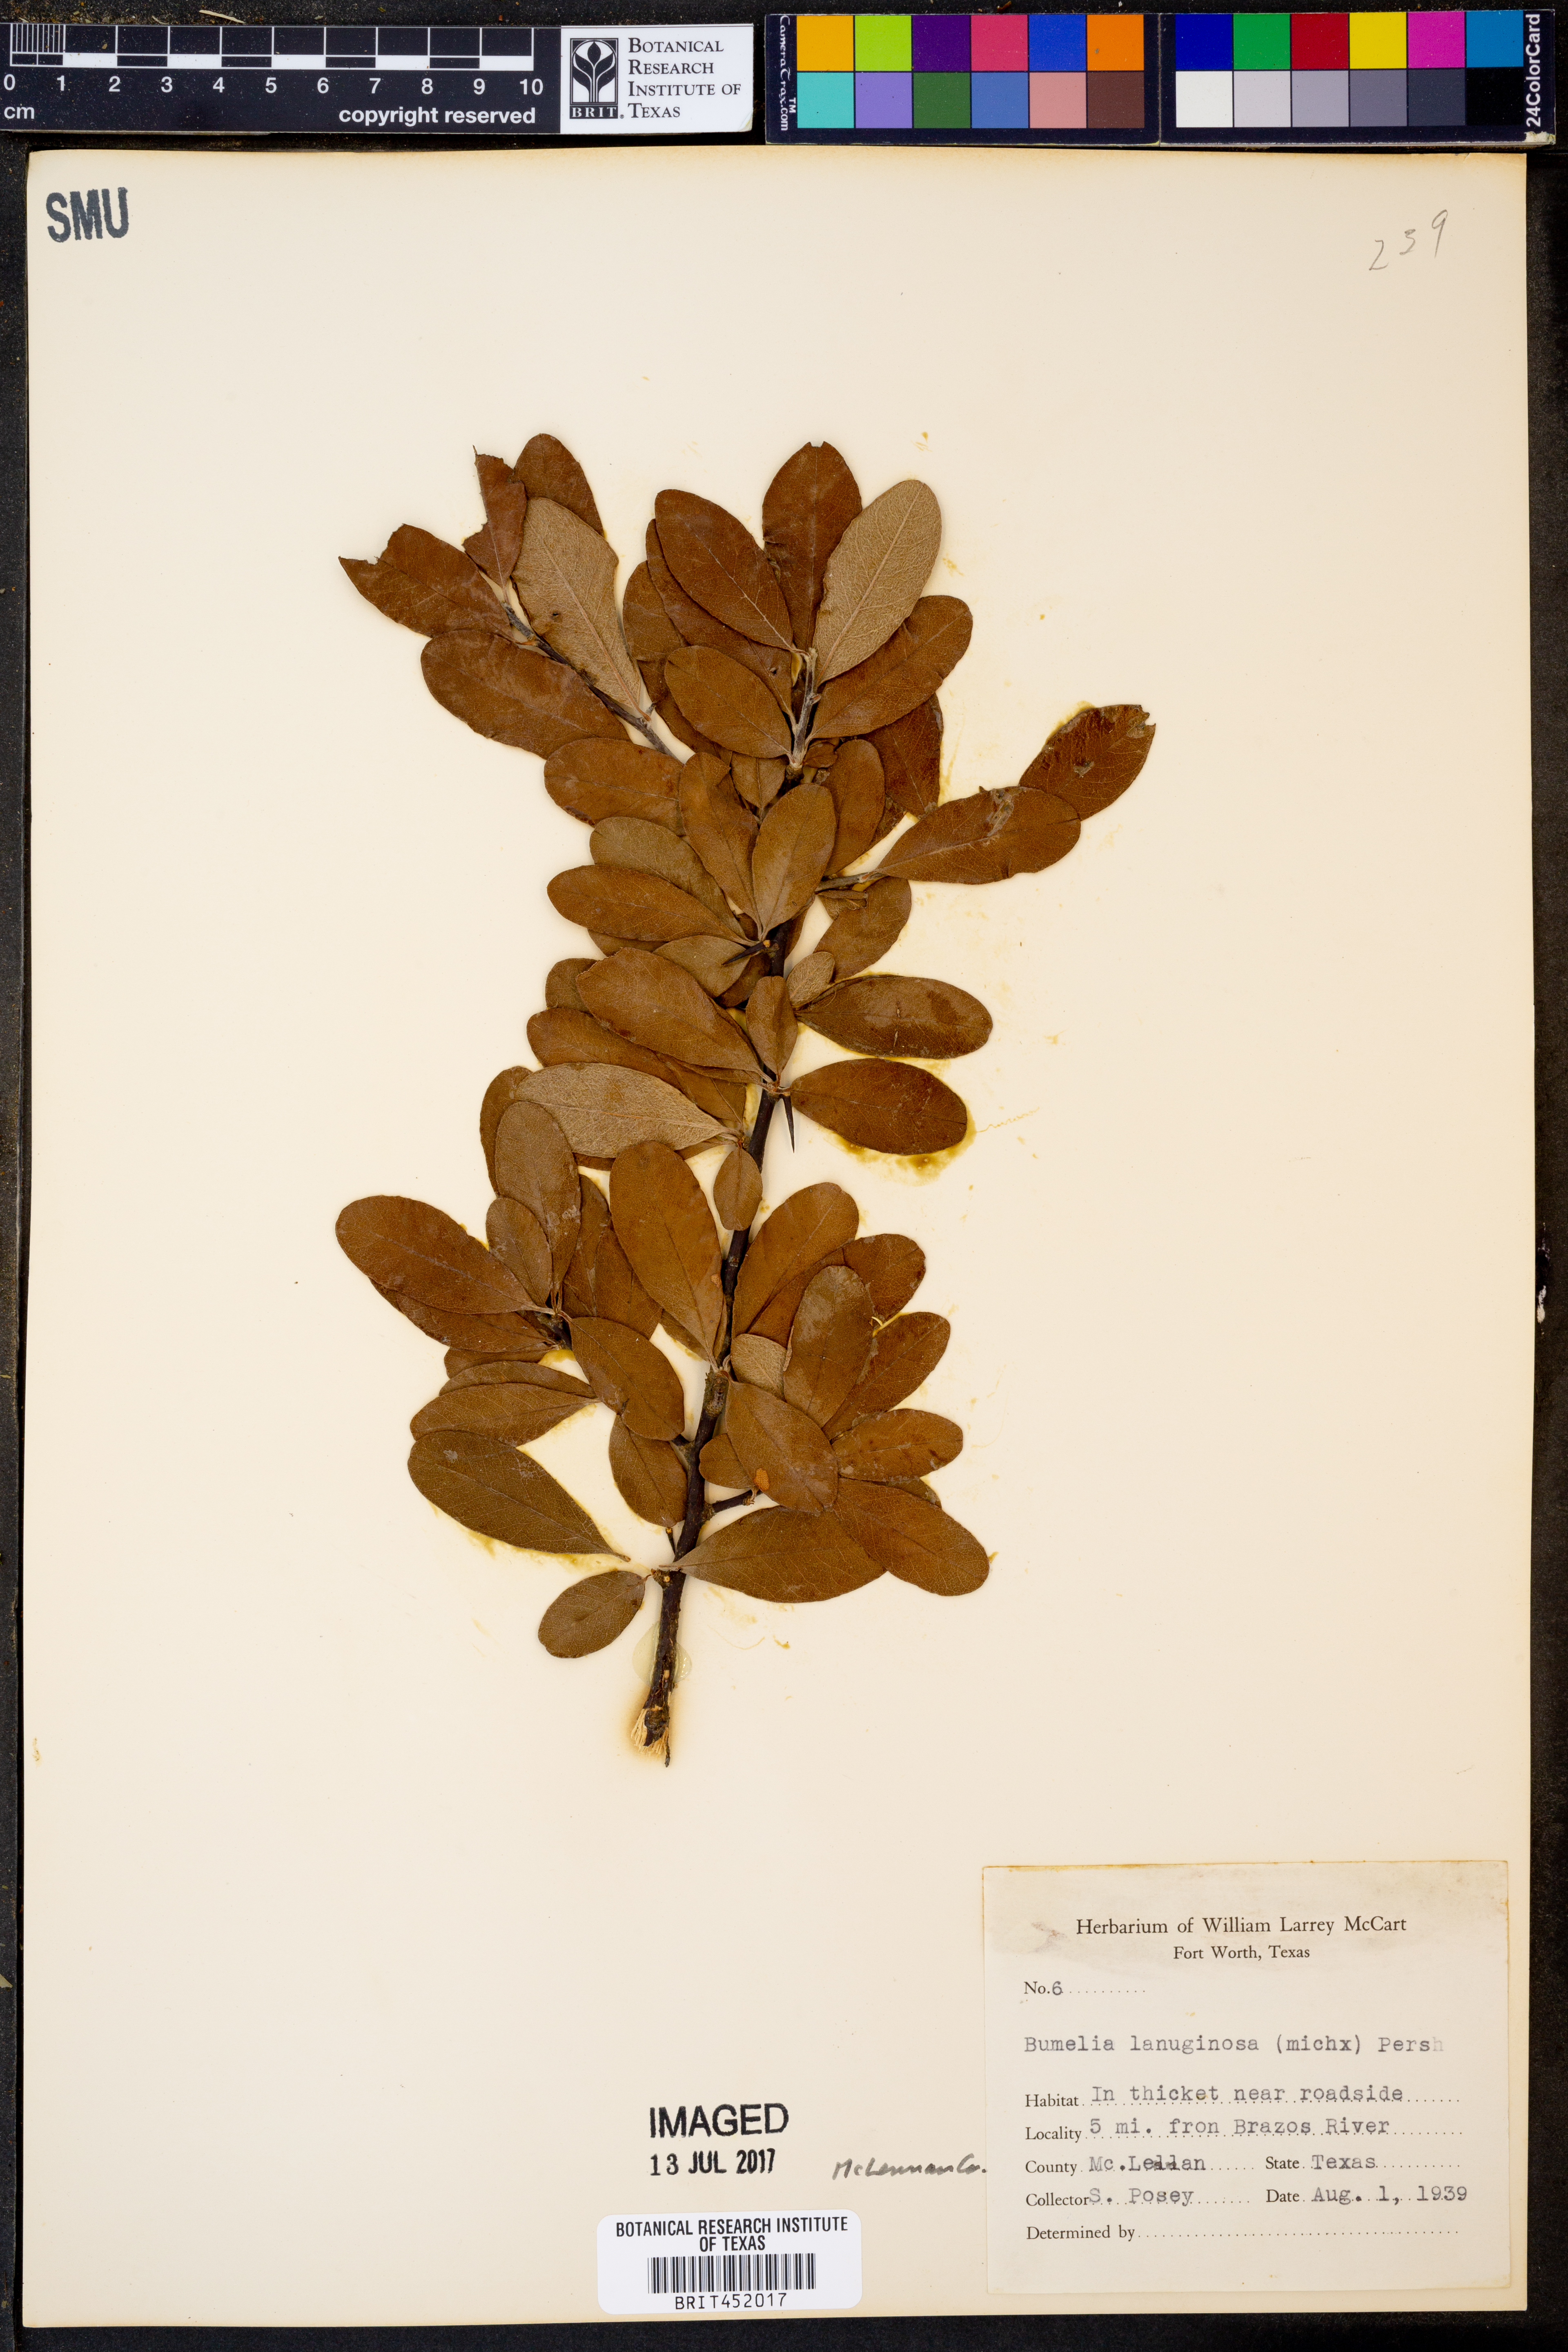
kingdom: Plantae
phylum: Tracheophyta
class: Magnoliopsida
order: Ericales
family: Sapotaceae
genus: Sideroxylon
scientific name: Sideroxylon lanuginosum
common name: Chittamwood
